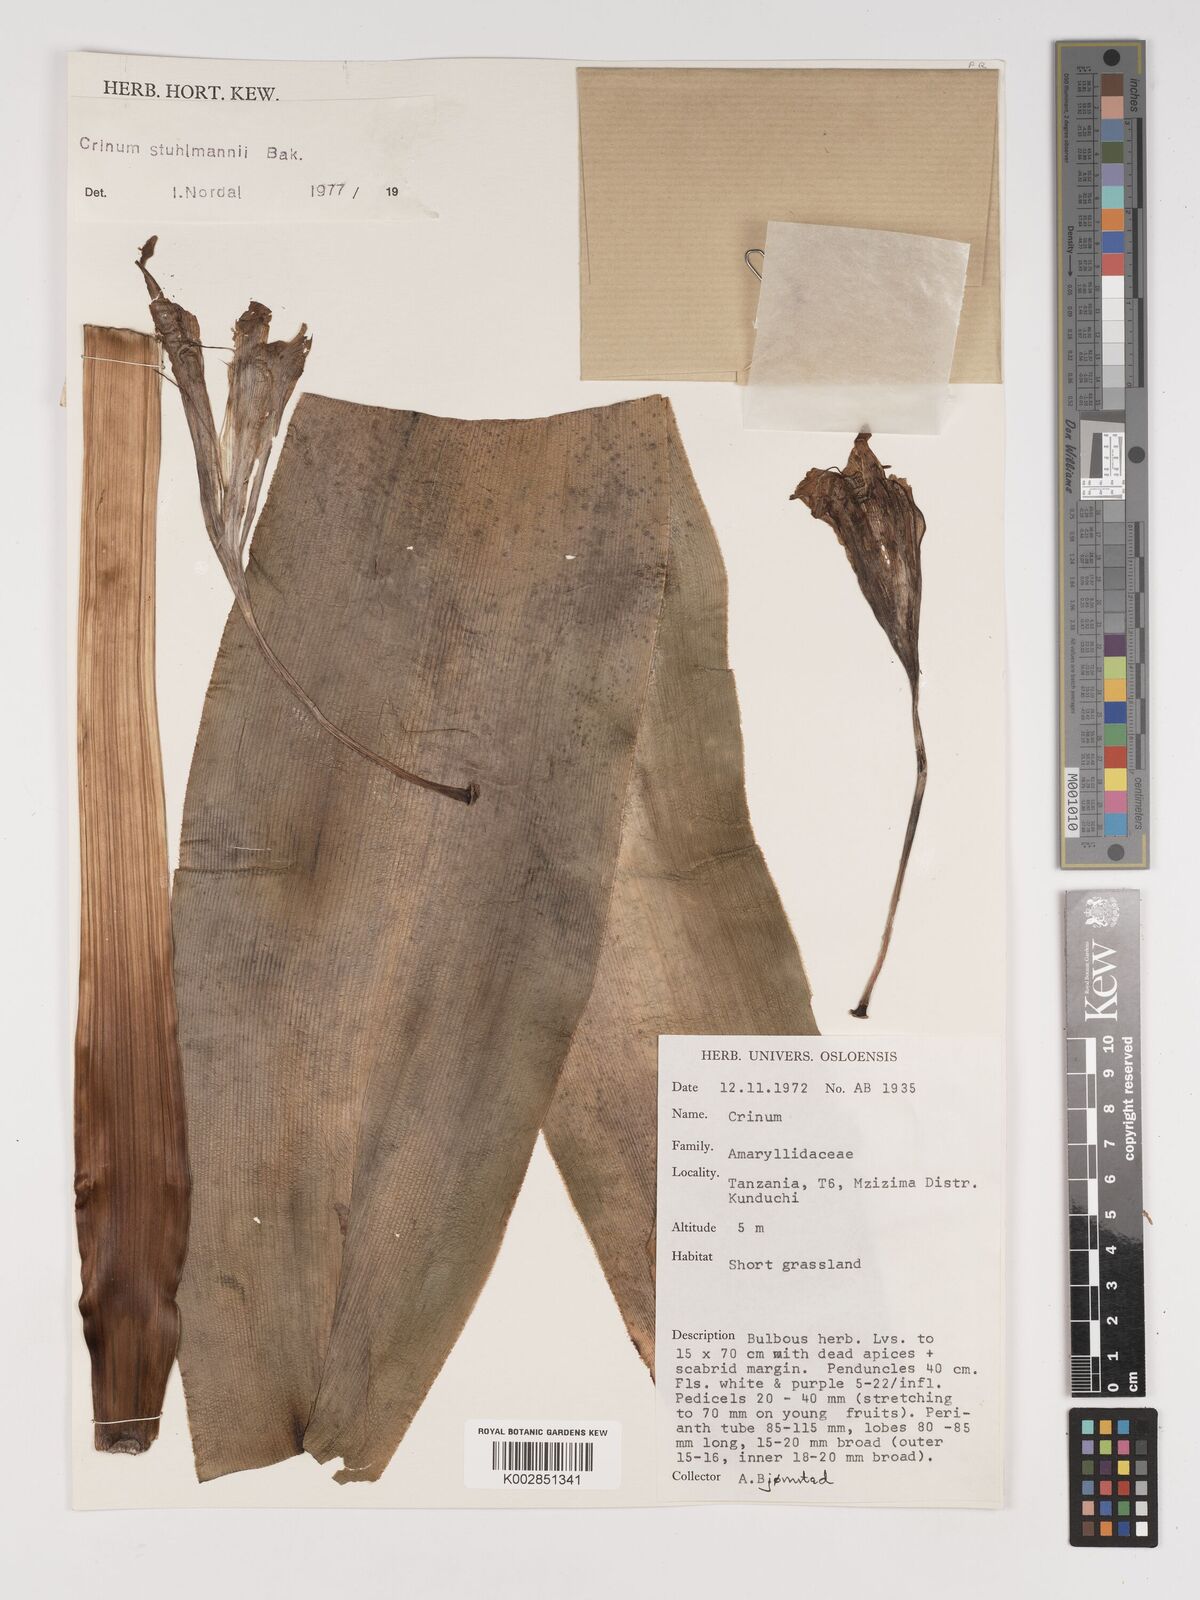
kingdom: Plantae
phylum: Tracheophyta
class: Liliopsida
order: Asparagales
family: Amaryllidaceae
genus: Crinum
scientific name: Crinum stuhlmannii
